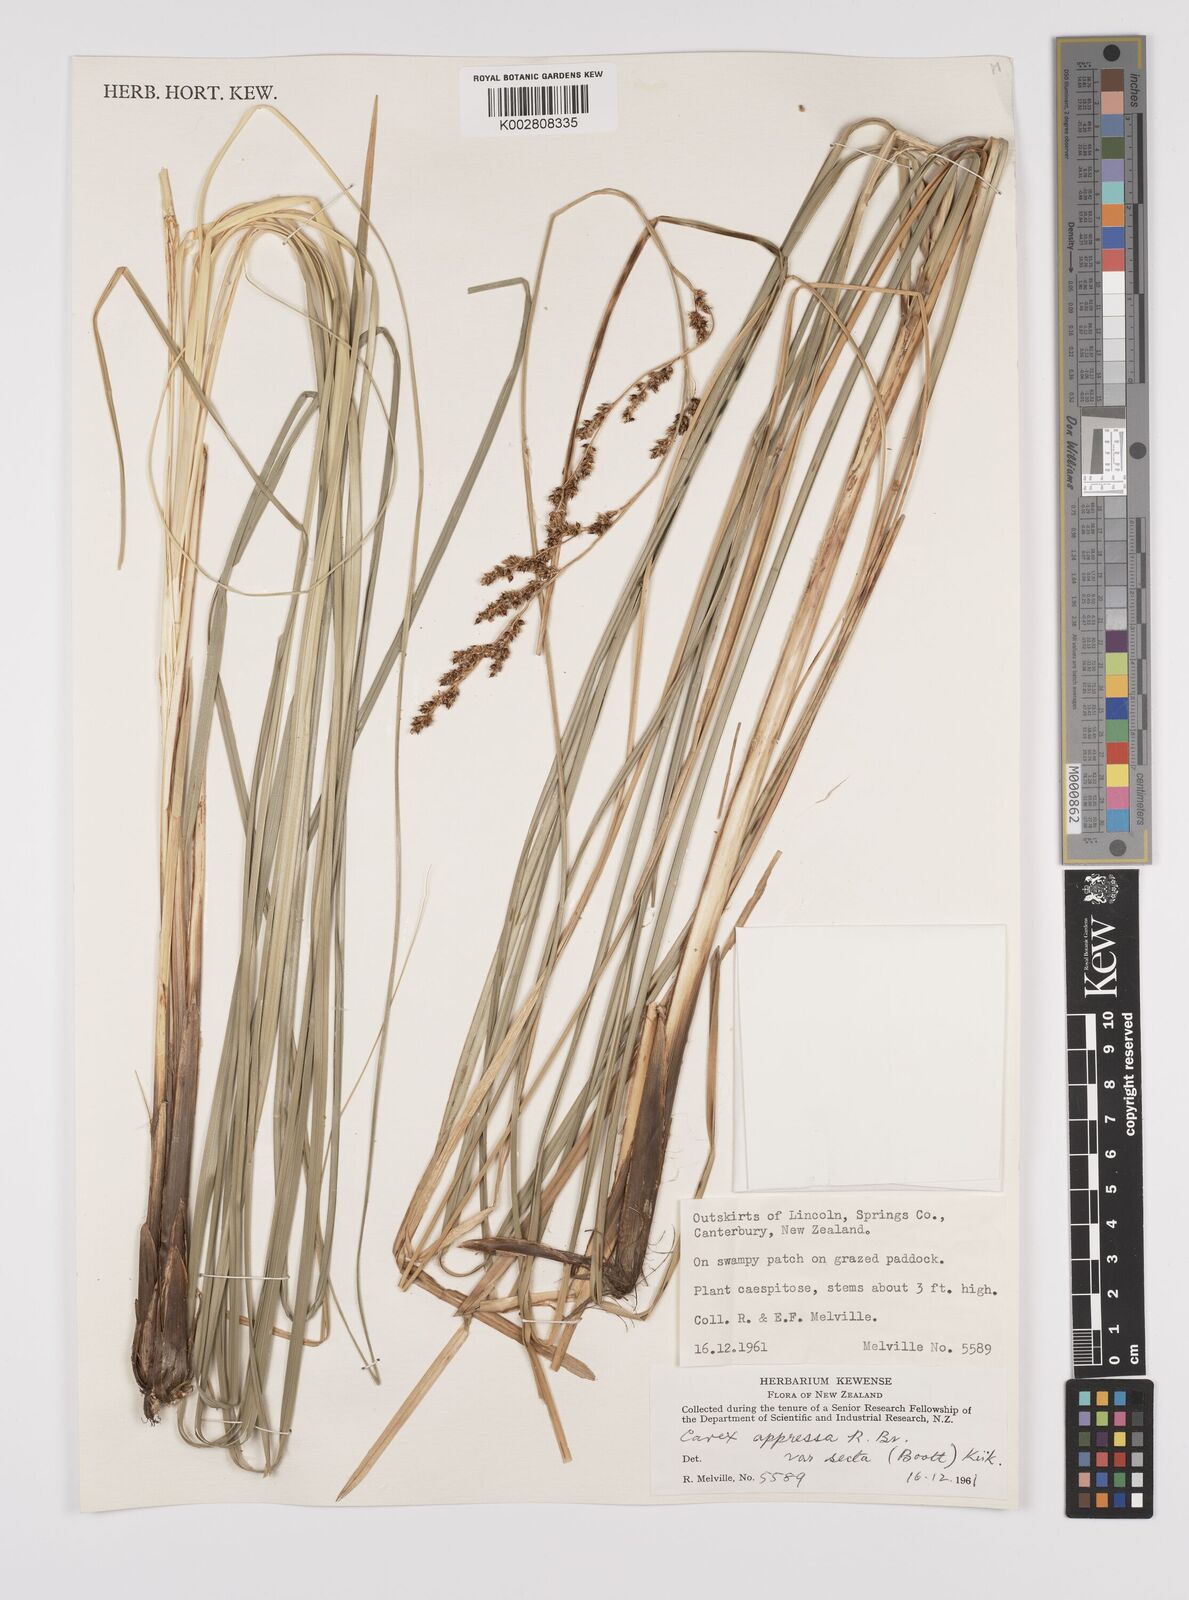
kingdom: Plantae
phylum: Tracheophyta
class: Liliopsida
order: Poales
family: Cyperaceae
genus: Carex
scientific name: Carex appressa
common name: Tussock sedge
